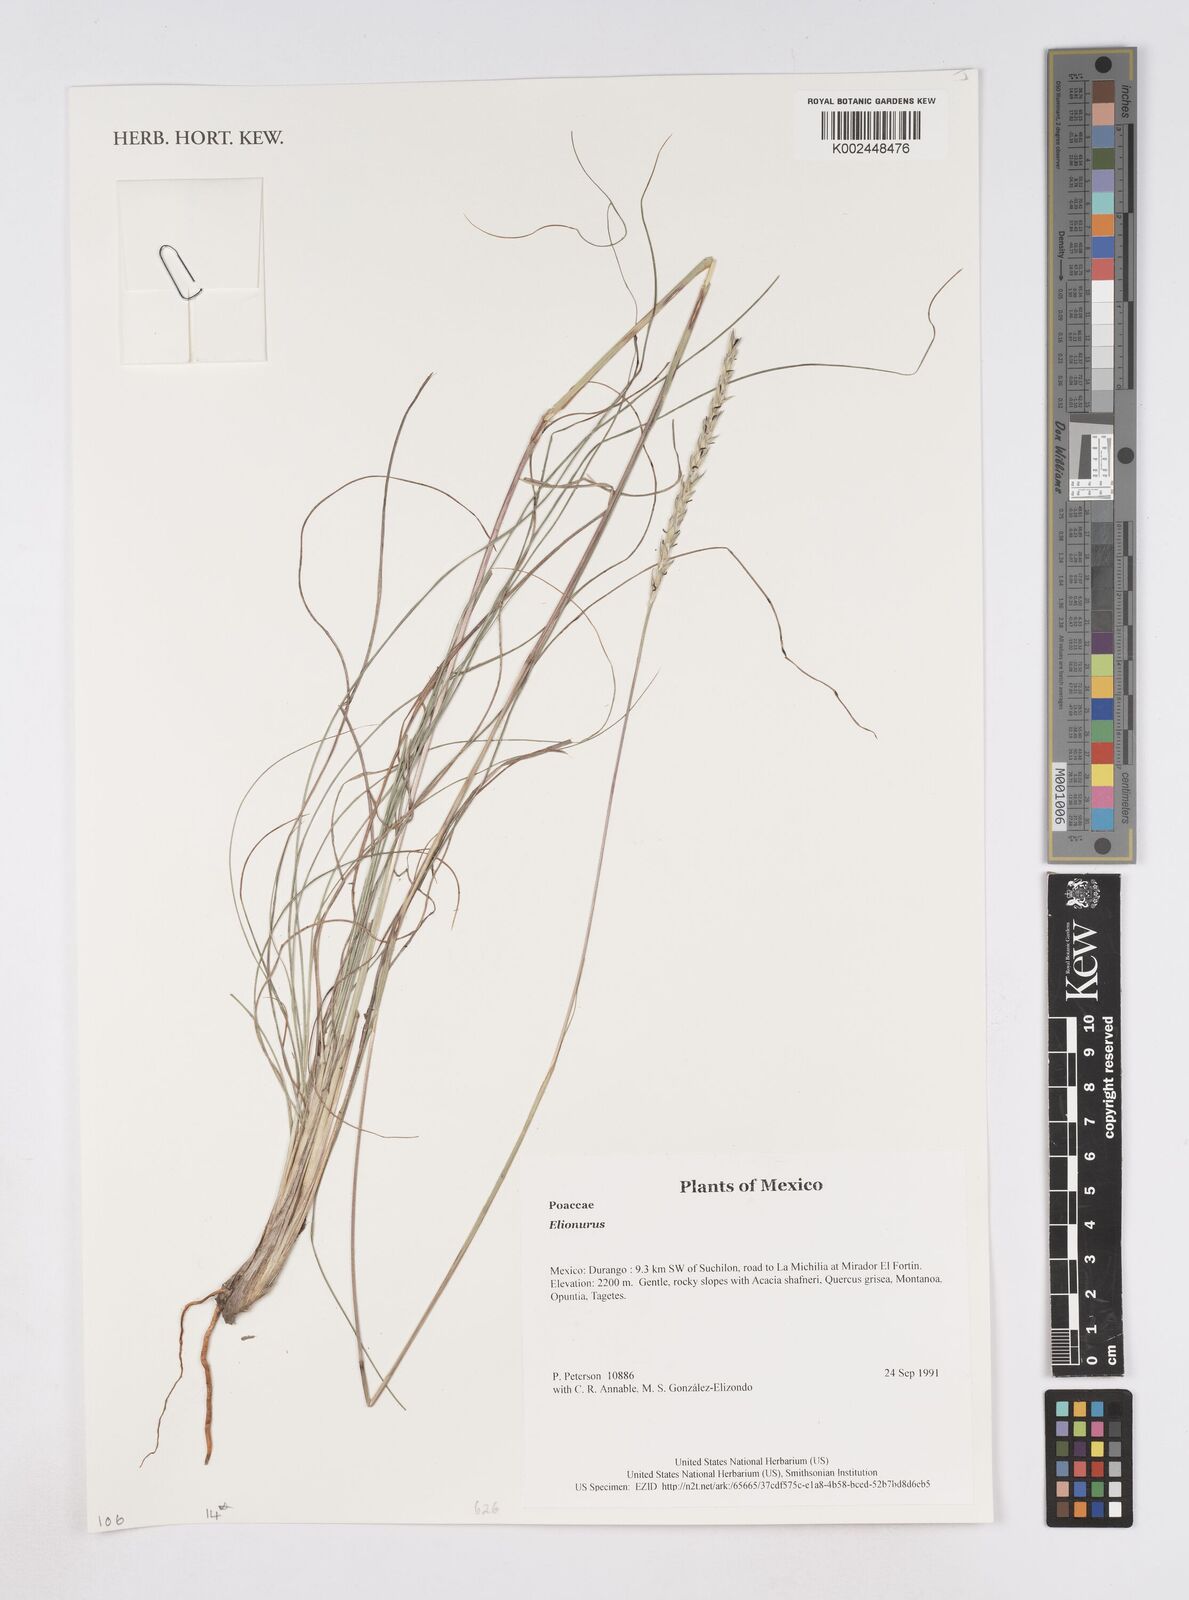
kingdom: Plantae
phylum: Tracheophyta
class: Liliopsida
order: Poales
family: Poaceae
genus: Elionurus
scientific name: Elionurus
